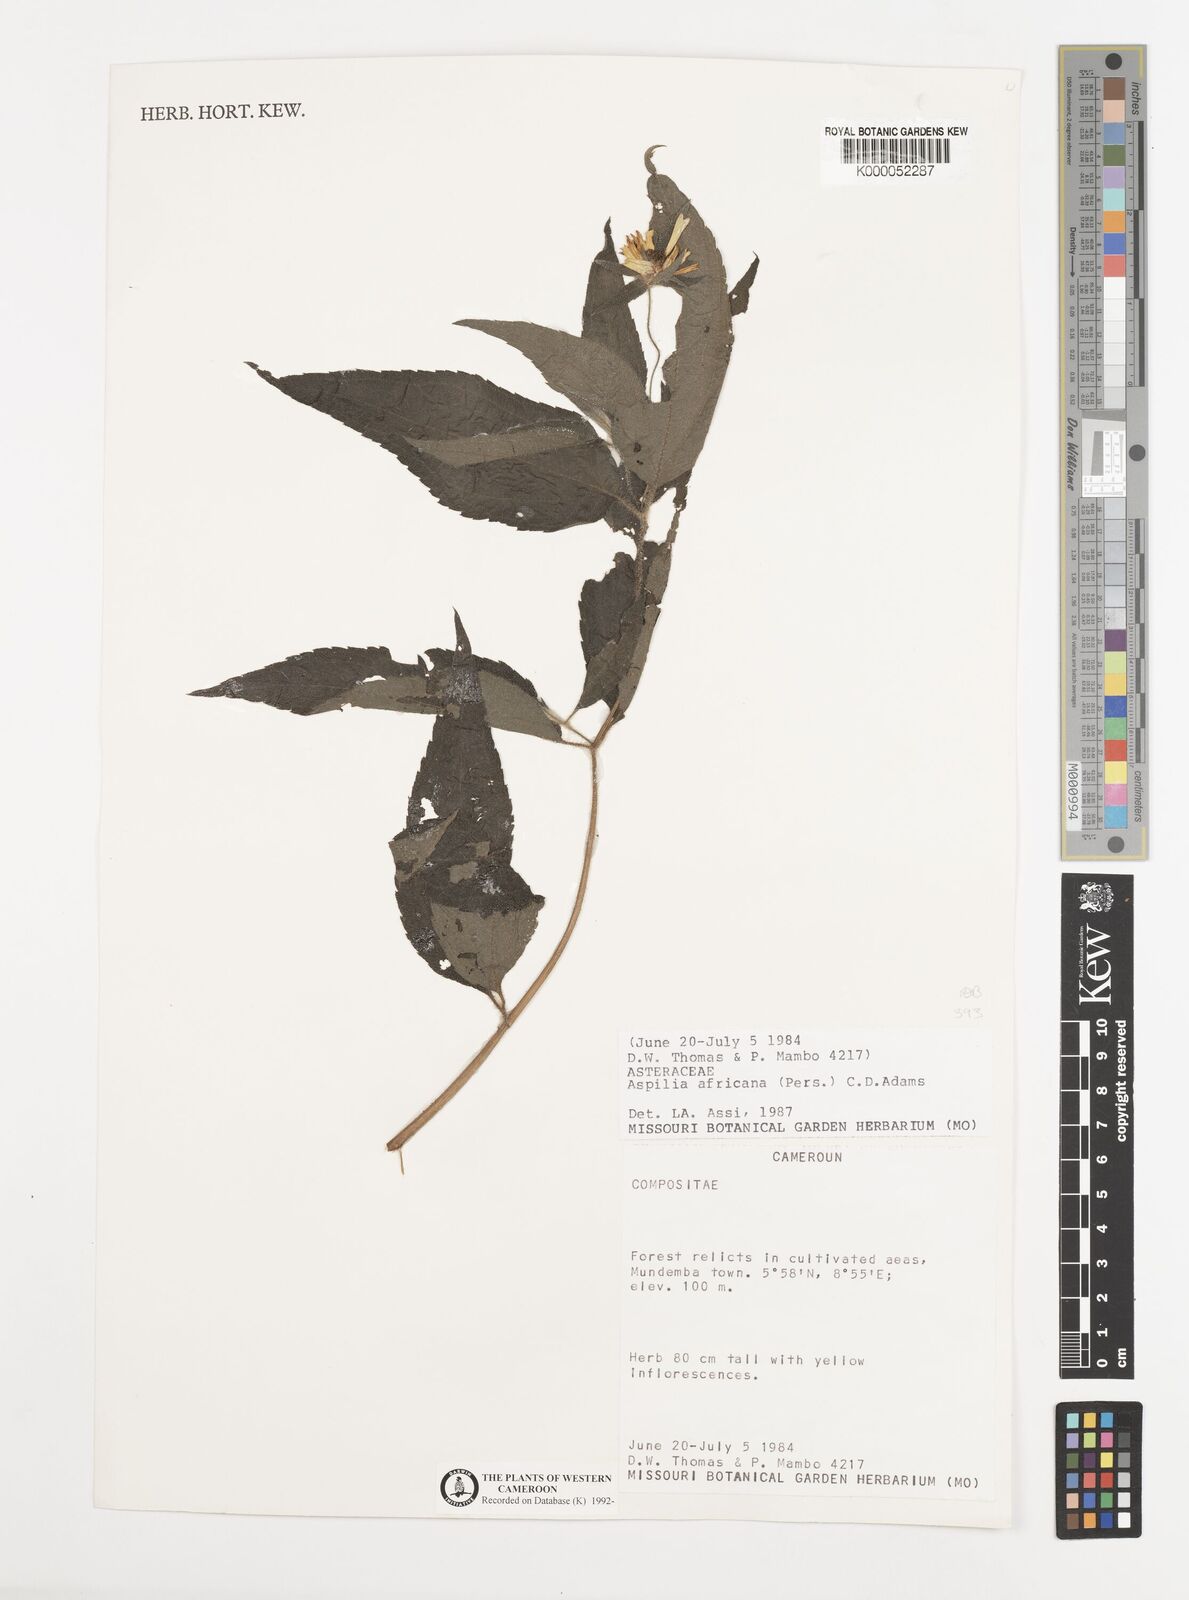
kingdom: Plantae
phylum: Tracheophyta
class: Magnoliopsida
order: Asterales
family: Asteraceae
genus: Aspilia
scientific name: Aspilia africana
